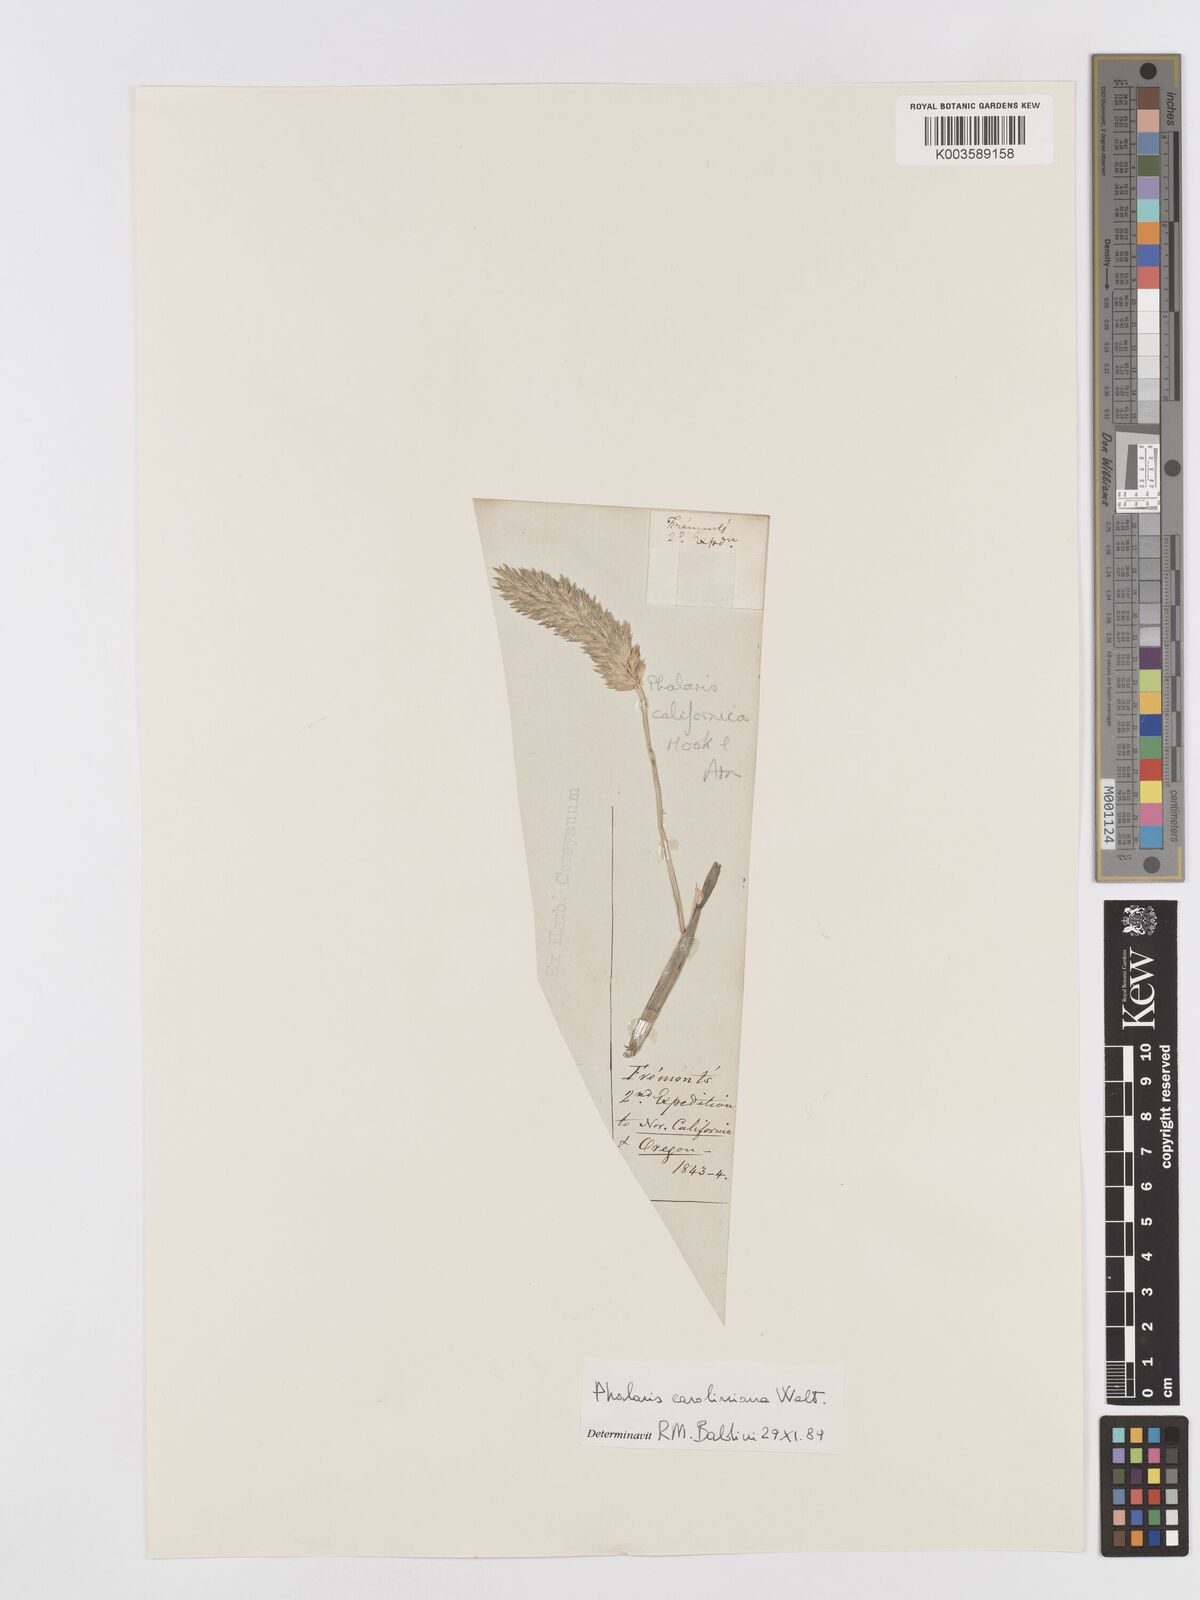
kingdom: Plantae
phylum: Tracheophyta
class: Liliopsida
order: Poales
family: Poaceae
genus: Phalaris
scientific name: Phalaris caroliniana
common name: May grass
